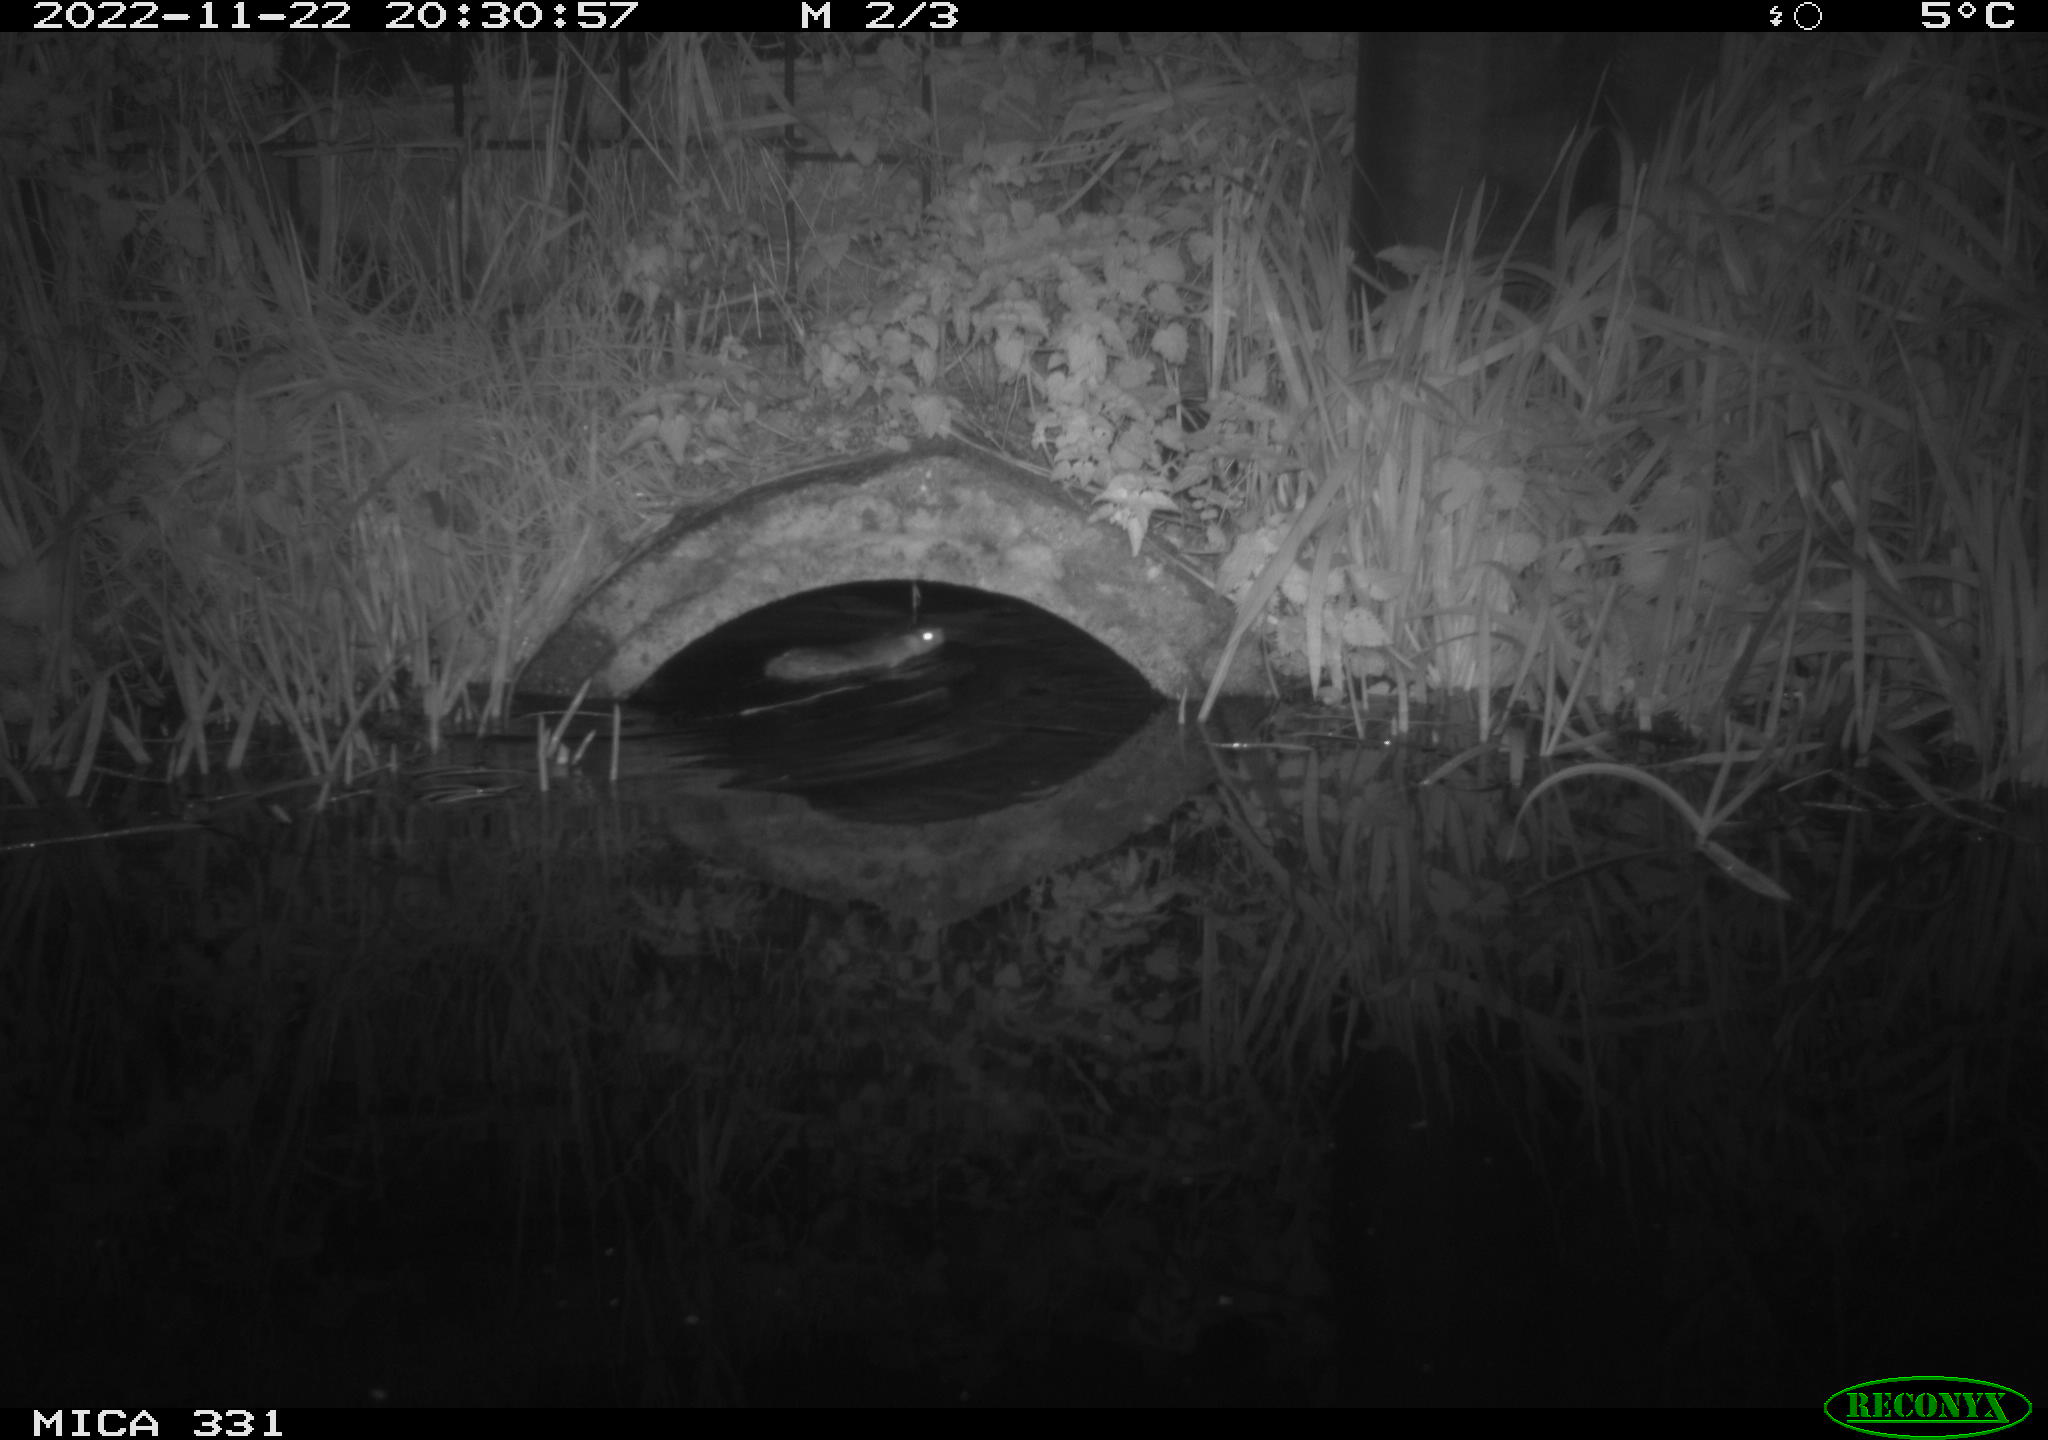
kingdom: Animalia
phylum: Chordata
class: Mammalia
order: Rodentia
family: Muridae
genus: Rattus
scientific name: Rattus norvegicus
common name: Brown rat
